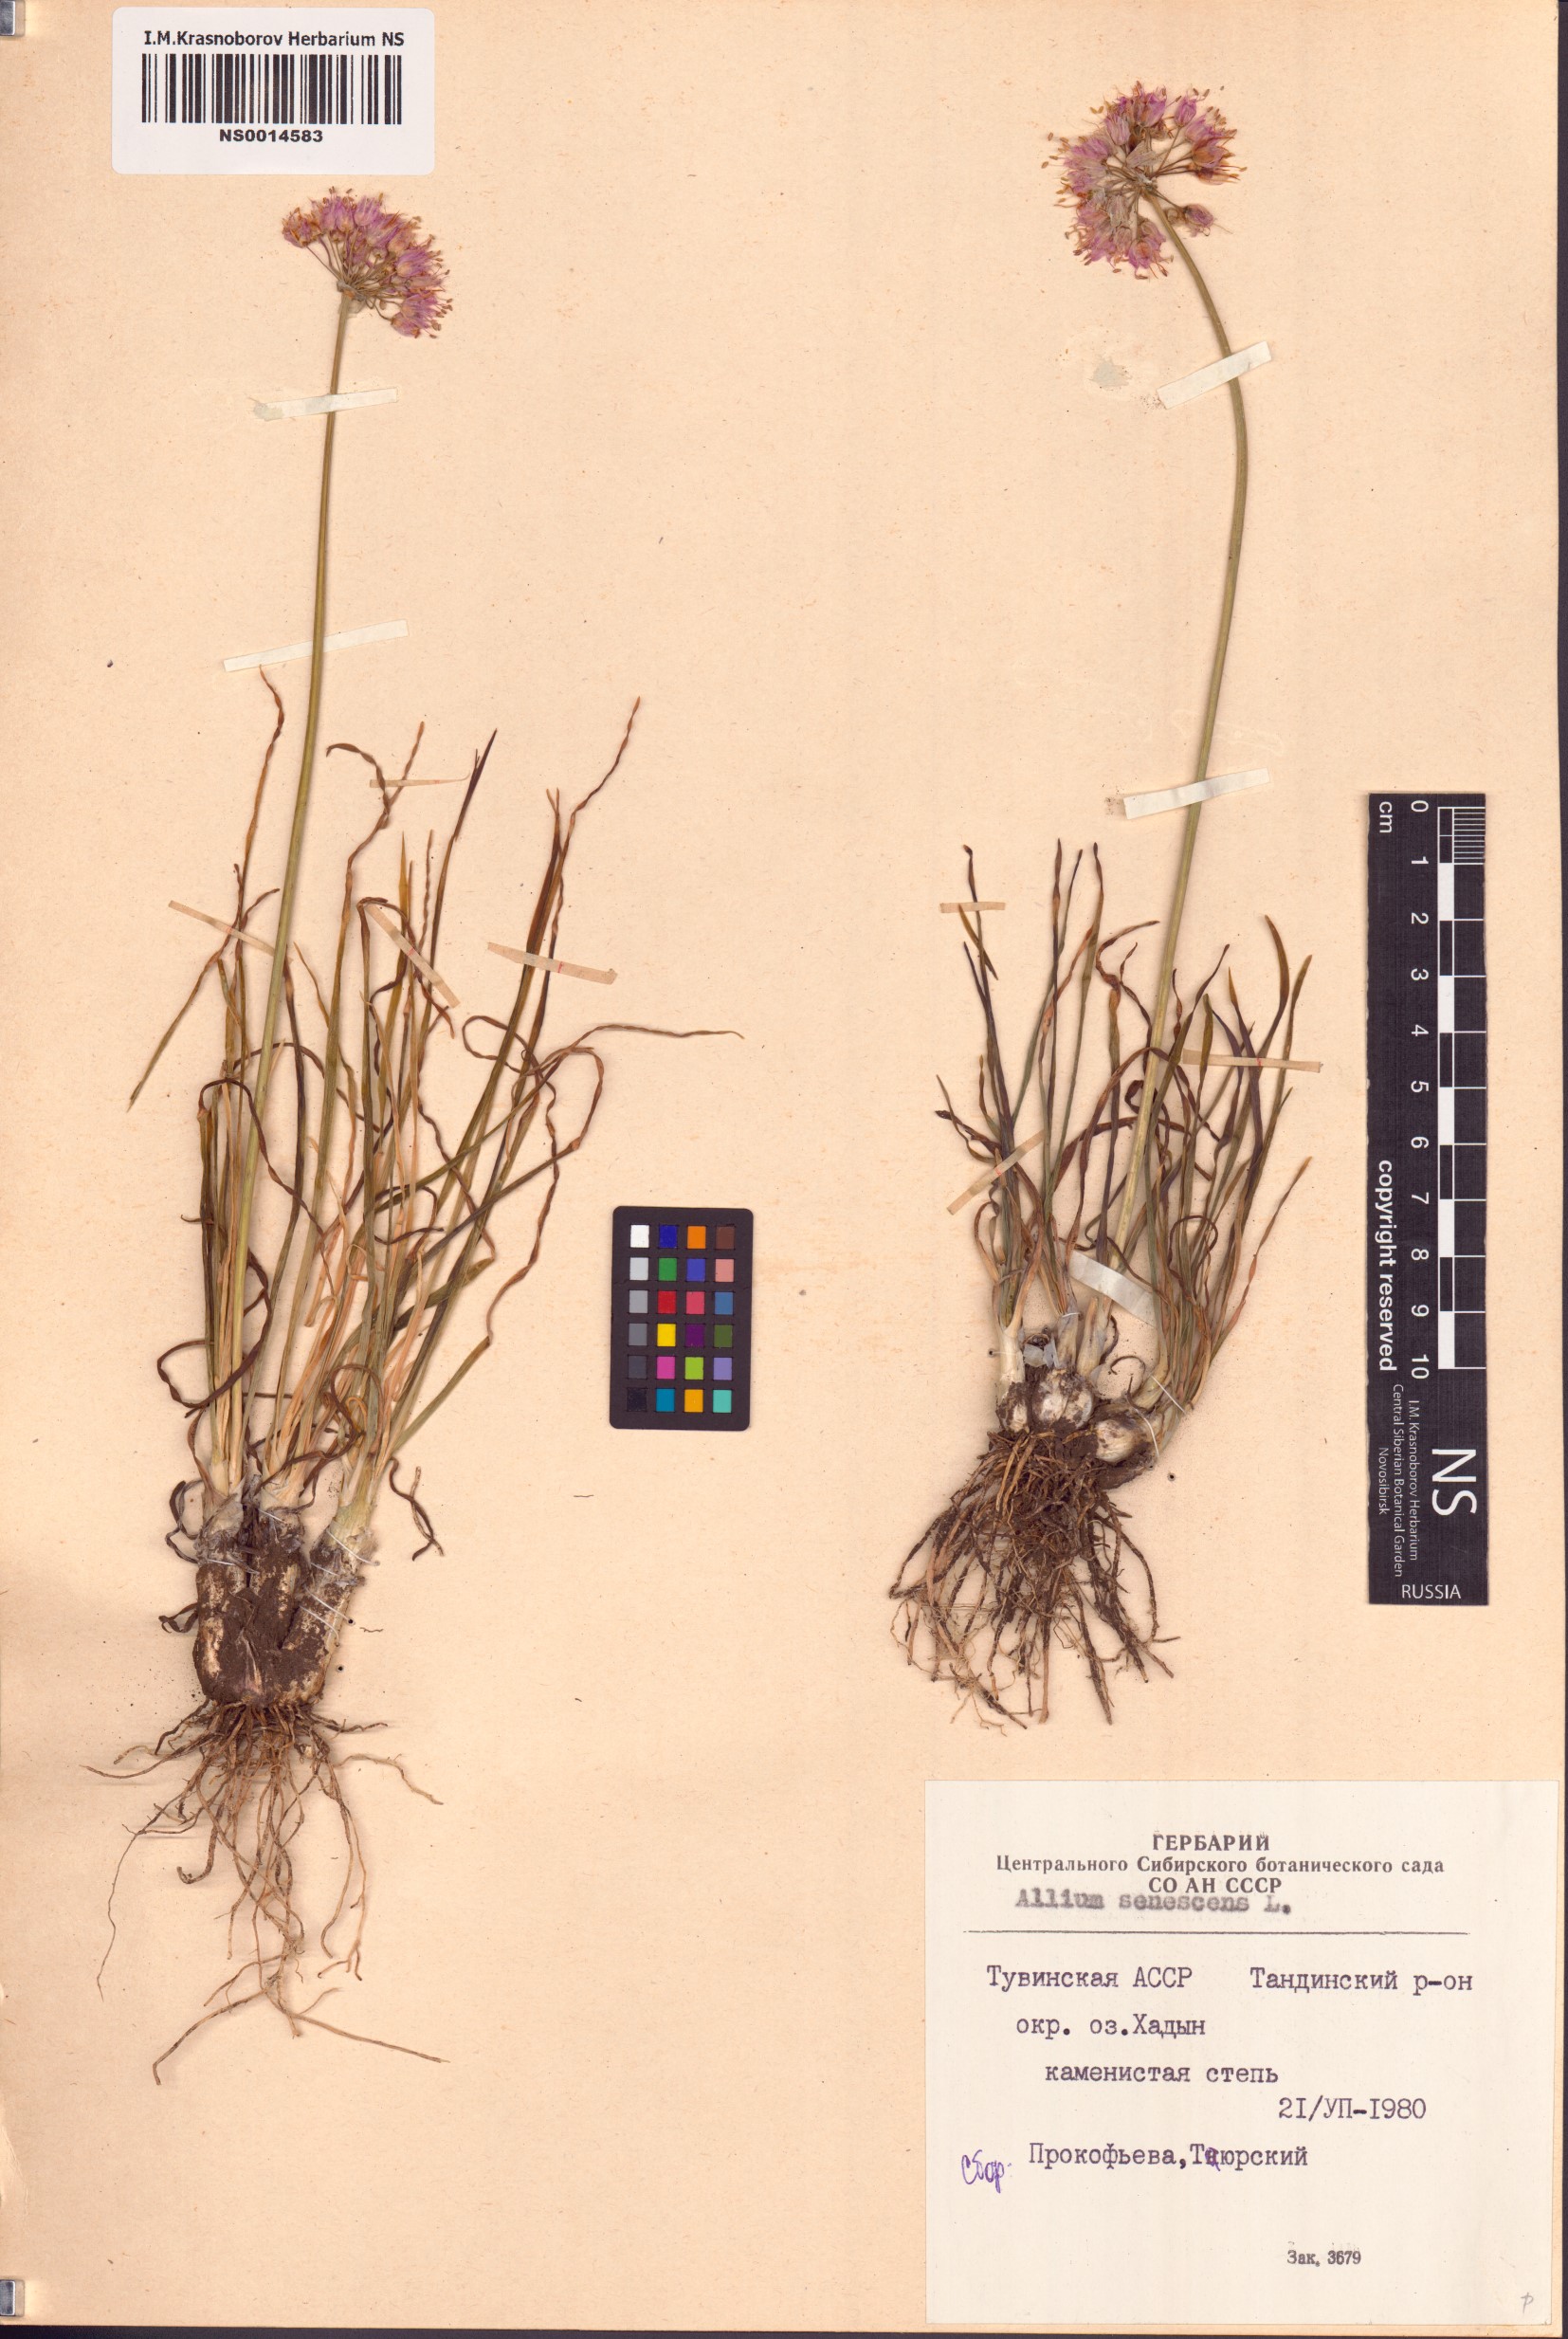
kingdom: Plantae
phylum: Tracheophyta
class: Liliopsida
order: Asparagales
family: Amaryllidaceae
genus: Allium
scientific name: Allium senescens
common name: German garlic
